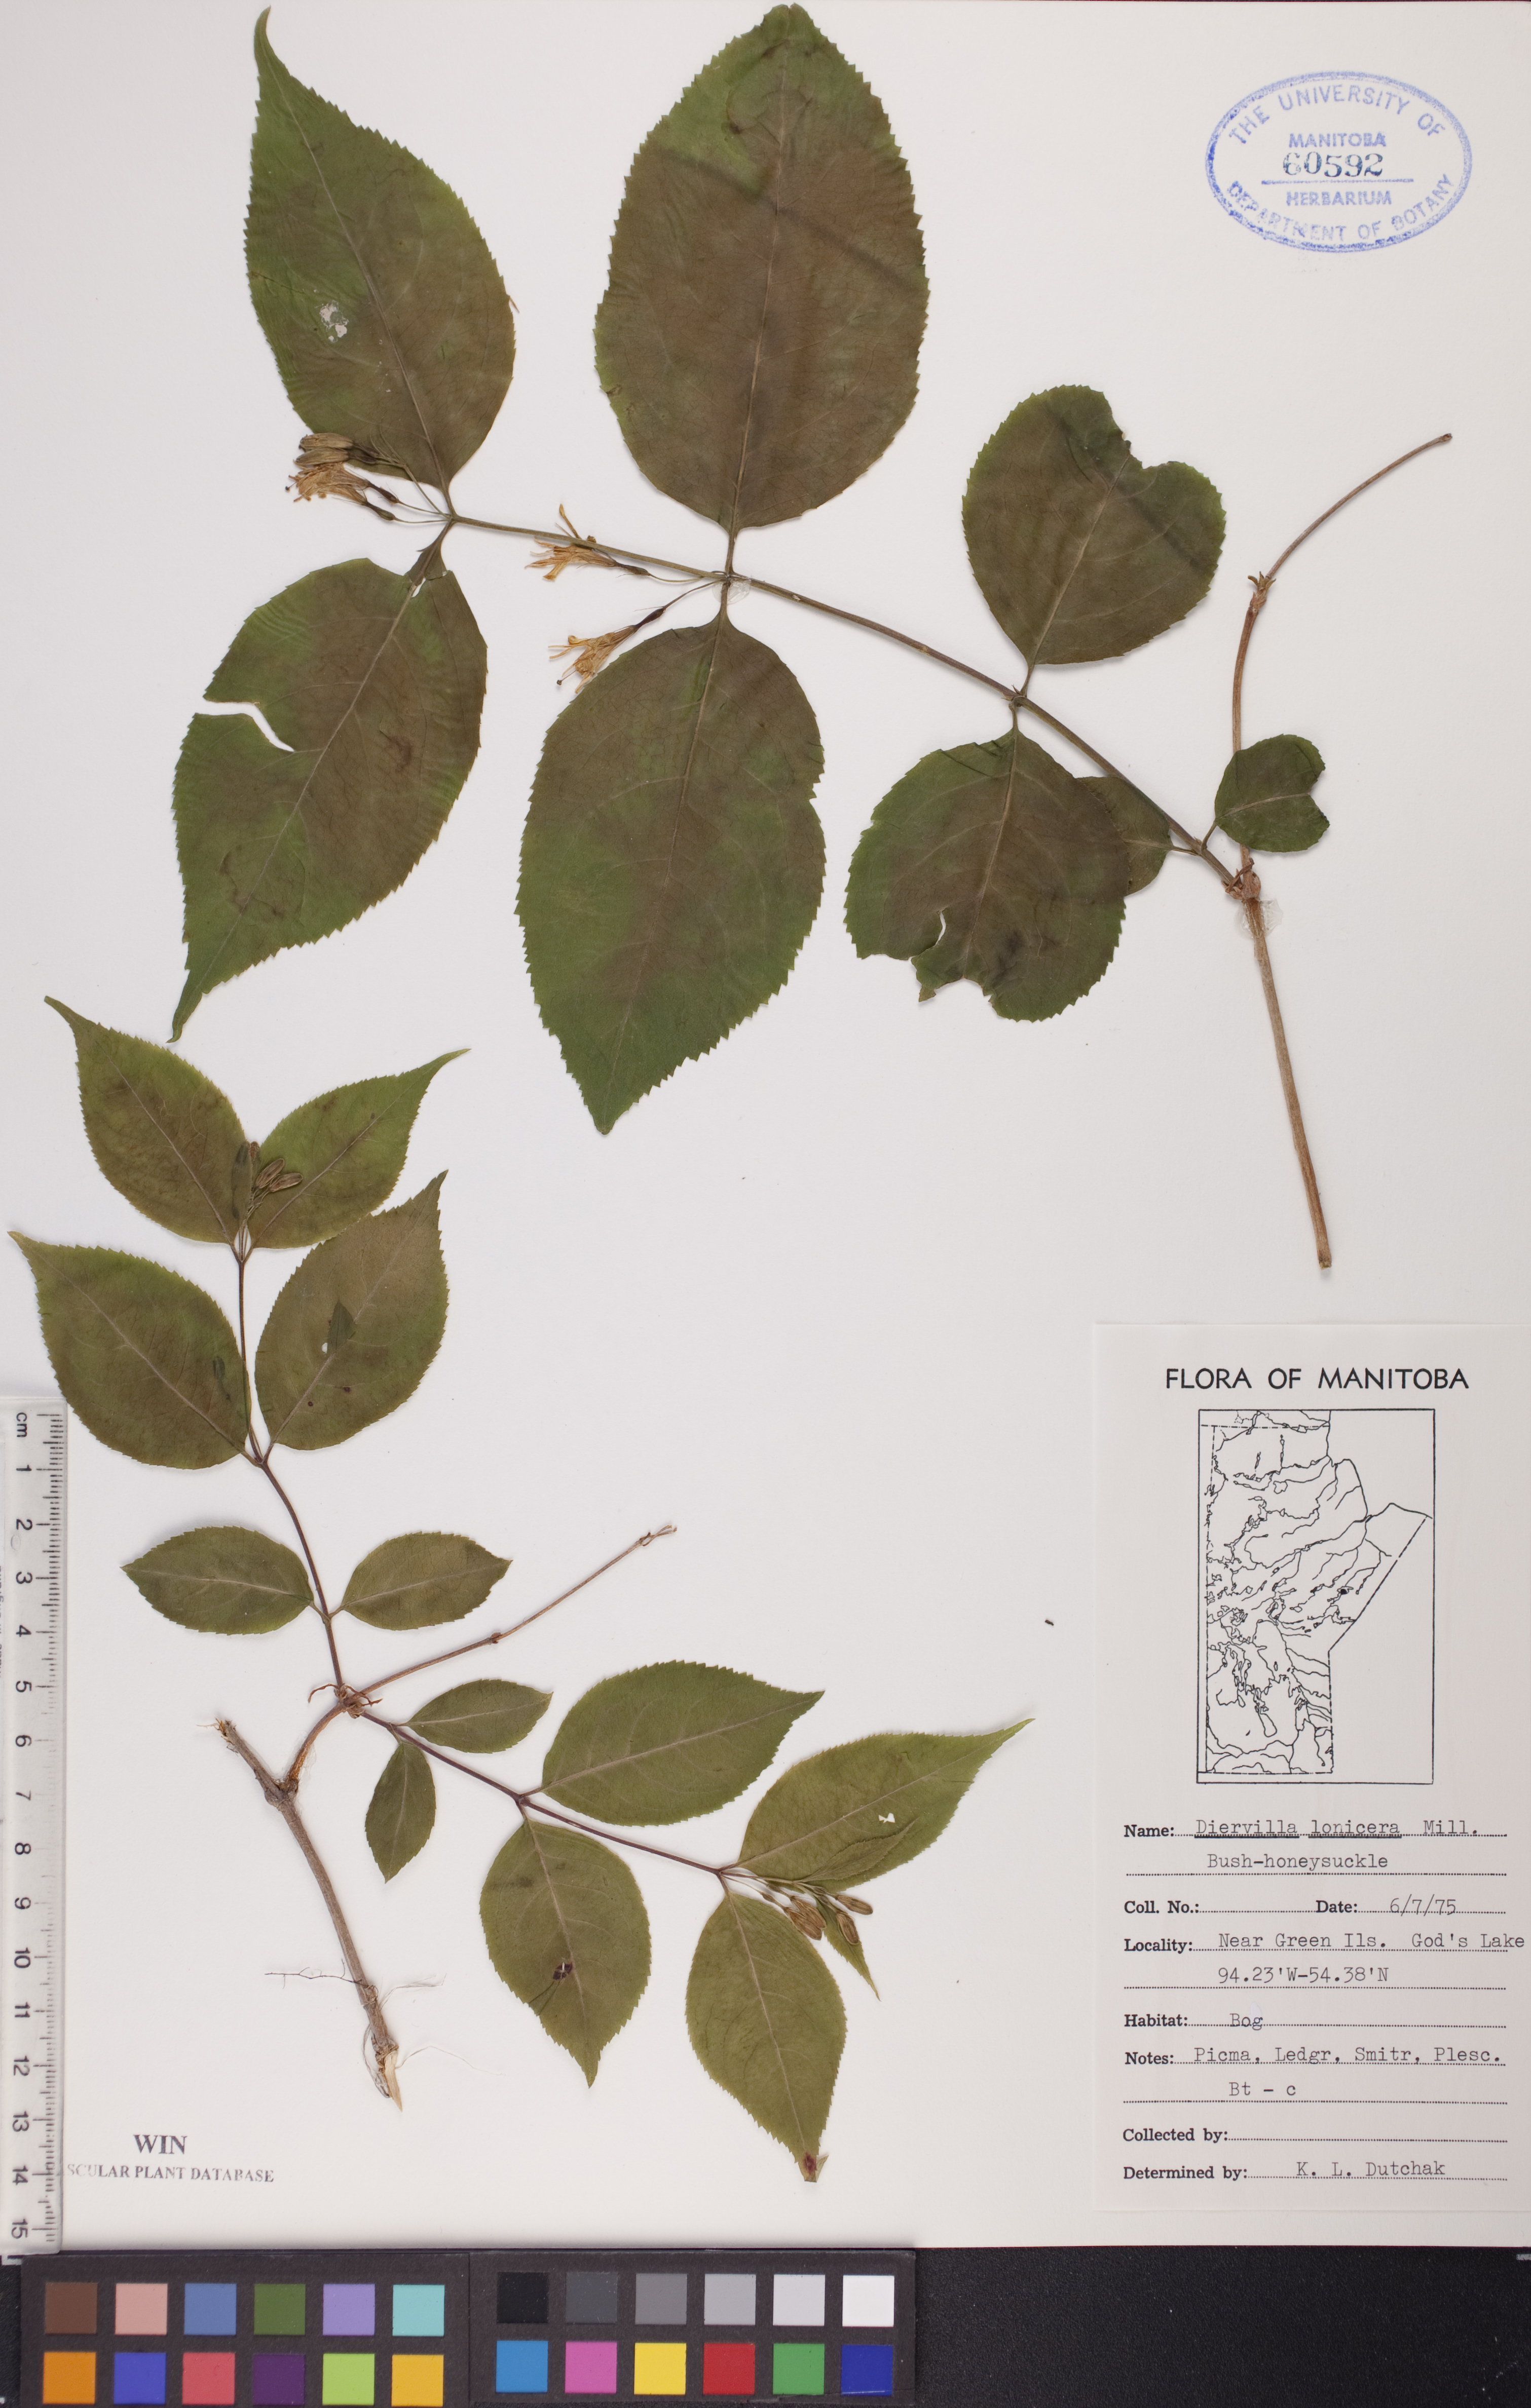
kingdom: Plantae
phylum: Tracheophyta
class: Magnoliopsida
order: Dipsacales
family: Caprifoliaceae
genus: Diervilla
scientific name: Diervilla lonicera
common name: Bush-honeysuckle
